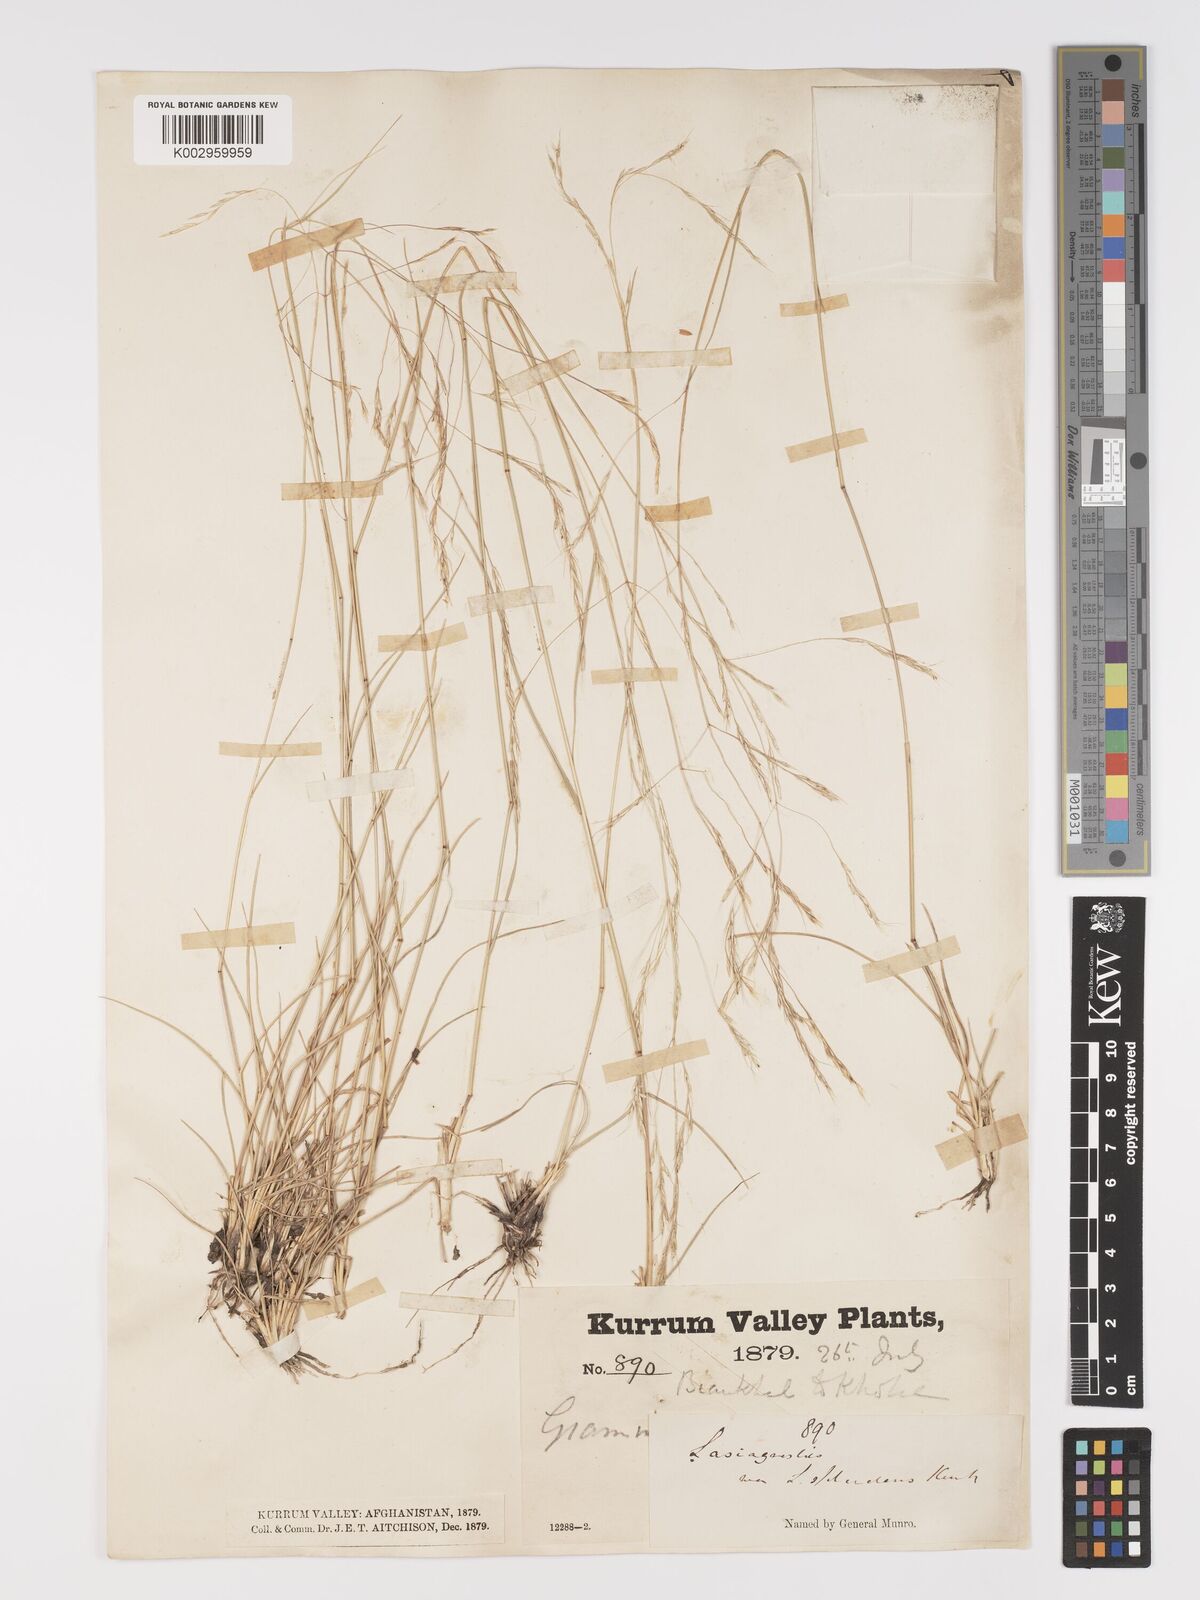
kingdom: Plantae
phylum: Tracheophyta
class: Liliopsida
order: Poales
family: Poaceae
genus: Stipa
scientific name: Stipa conferta
